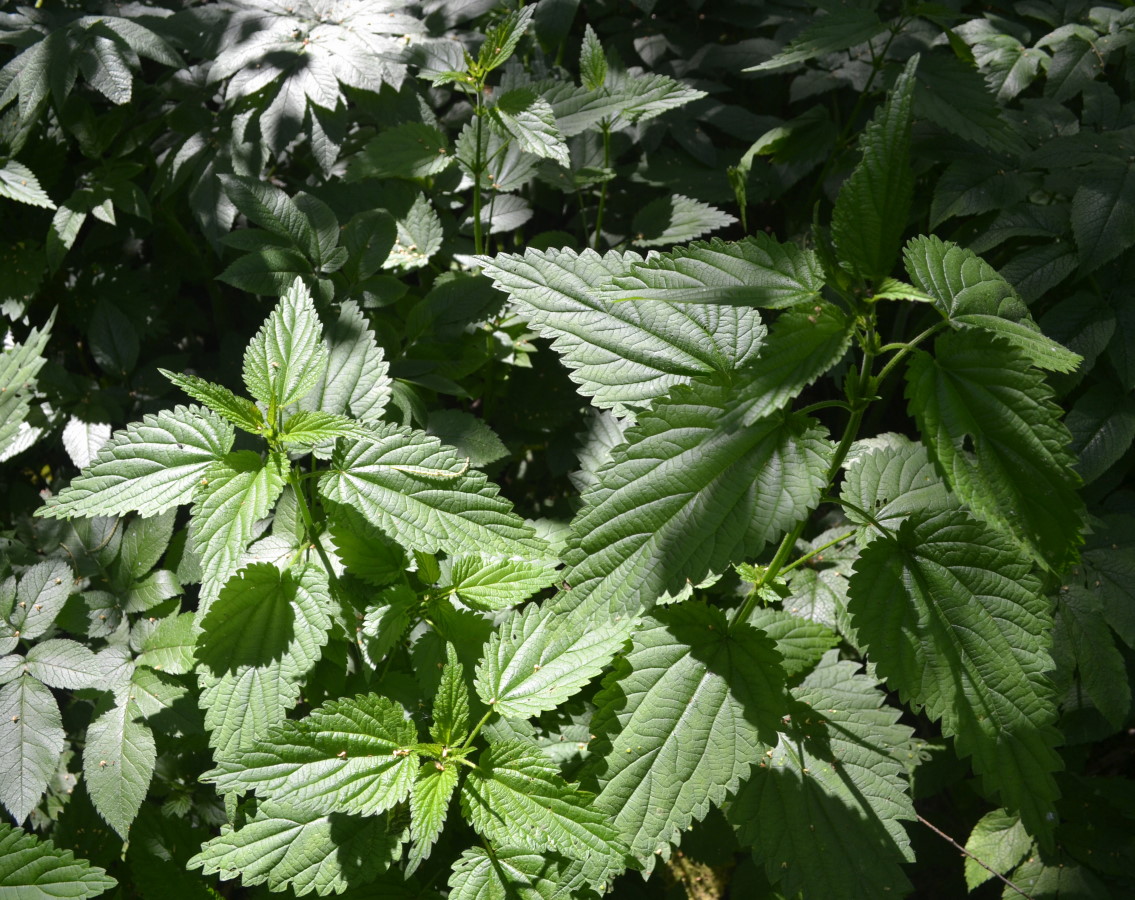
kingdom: Plantae
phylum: Tracheophyta
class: Magnoliopsida
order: Rosales
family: Urticaceae
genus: Urtica
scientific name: Urtica dioica
